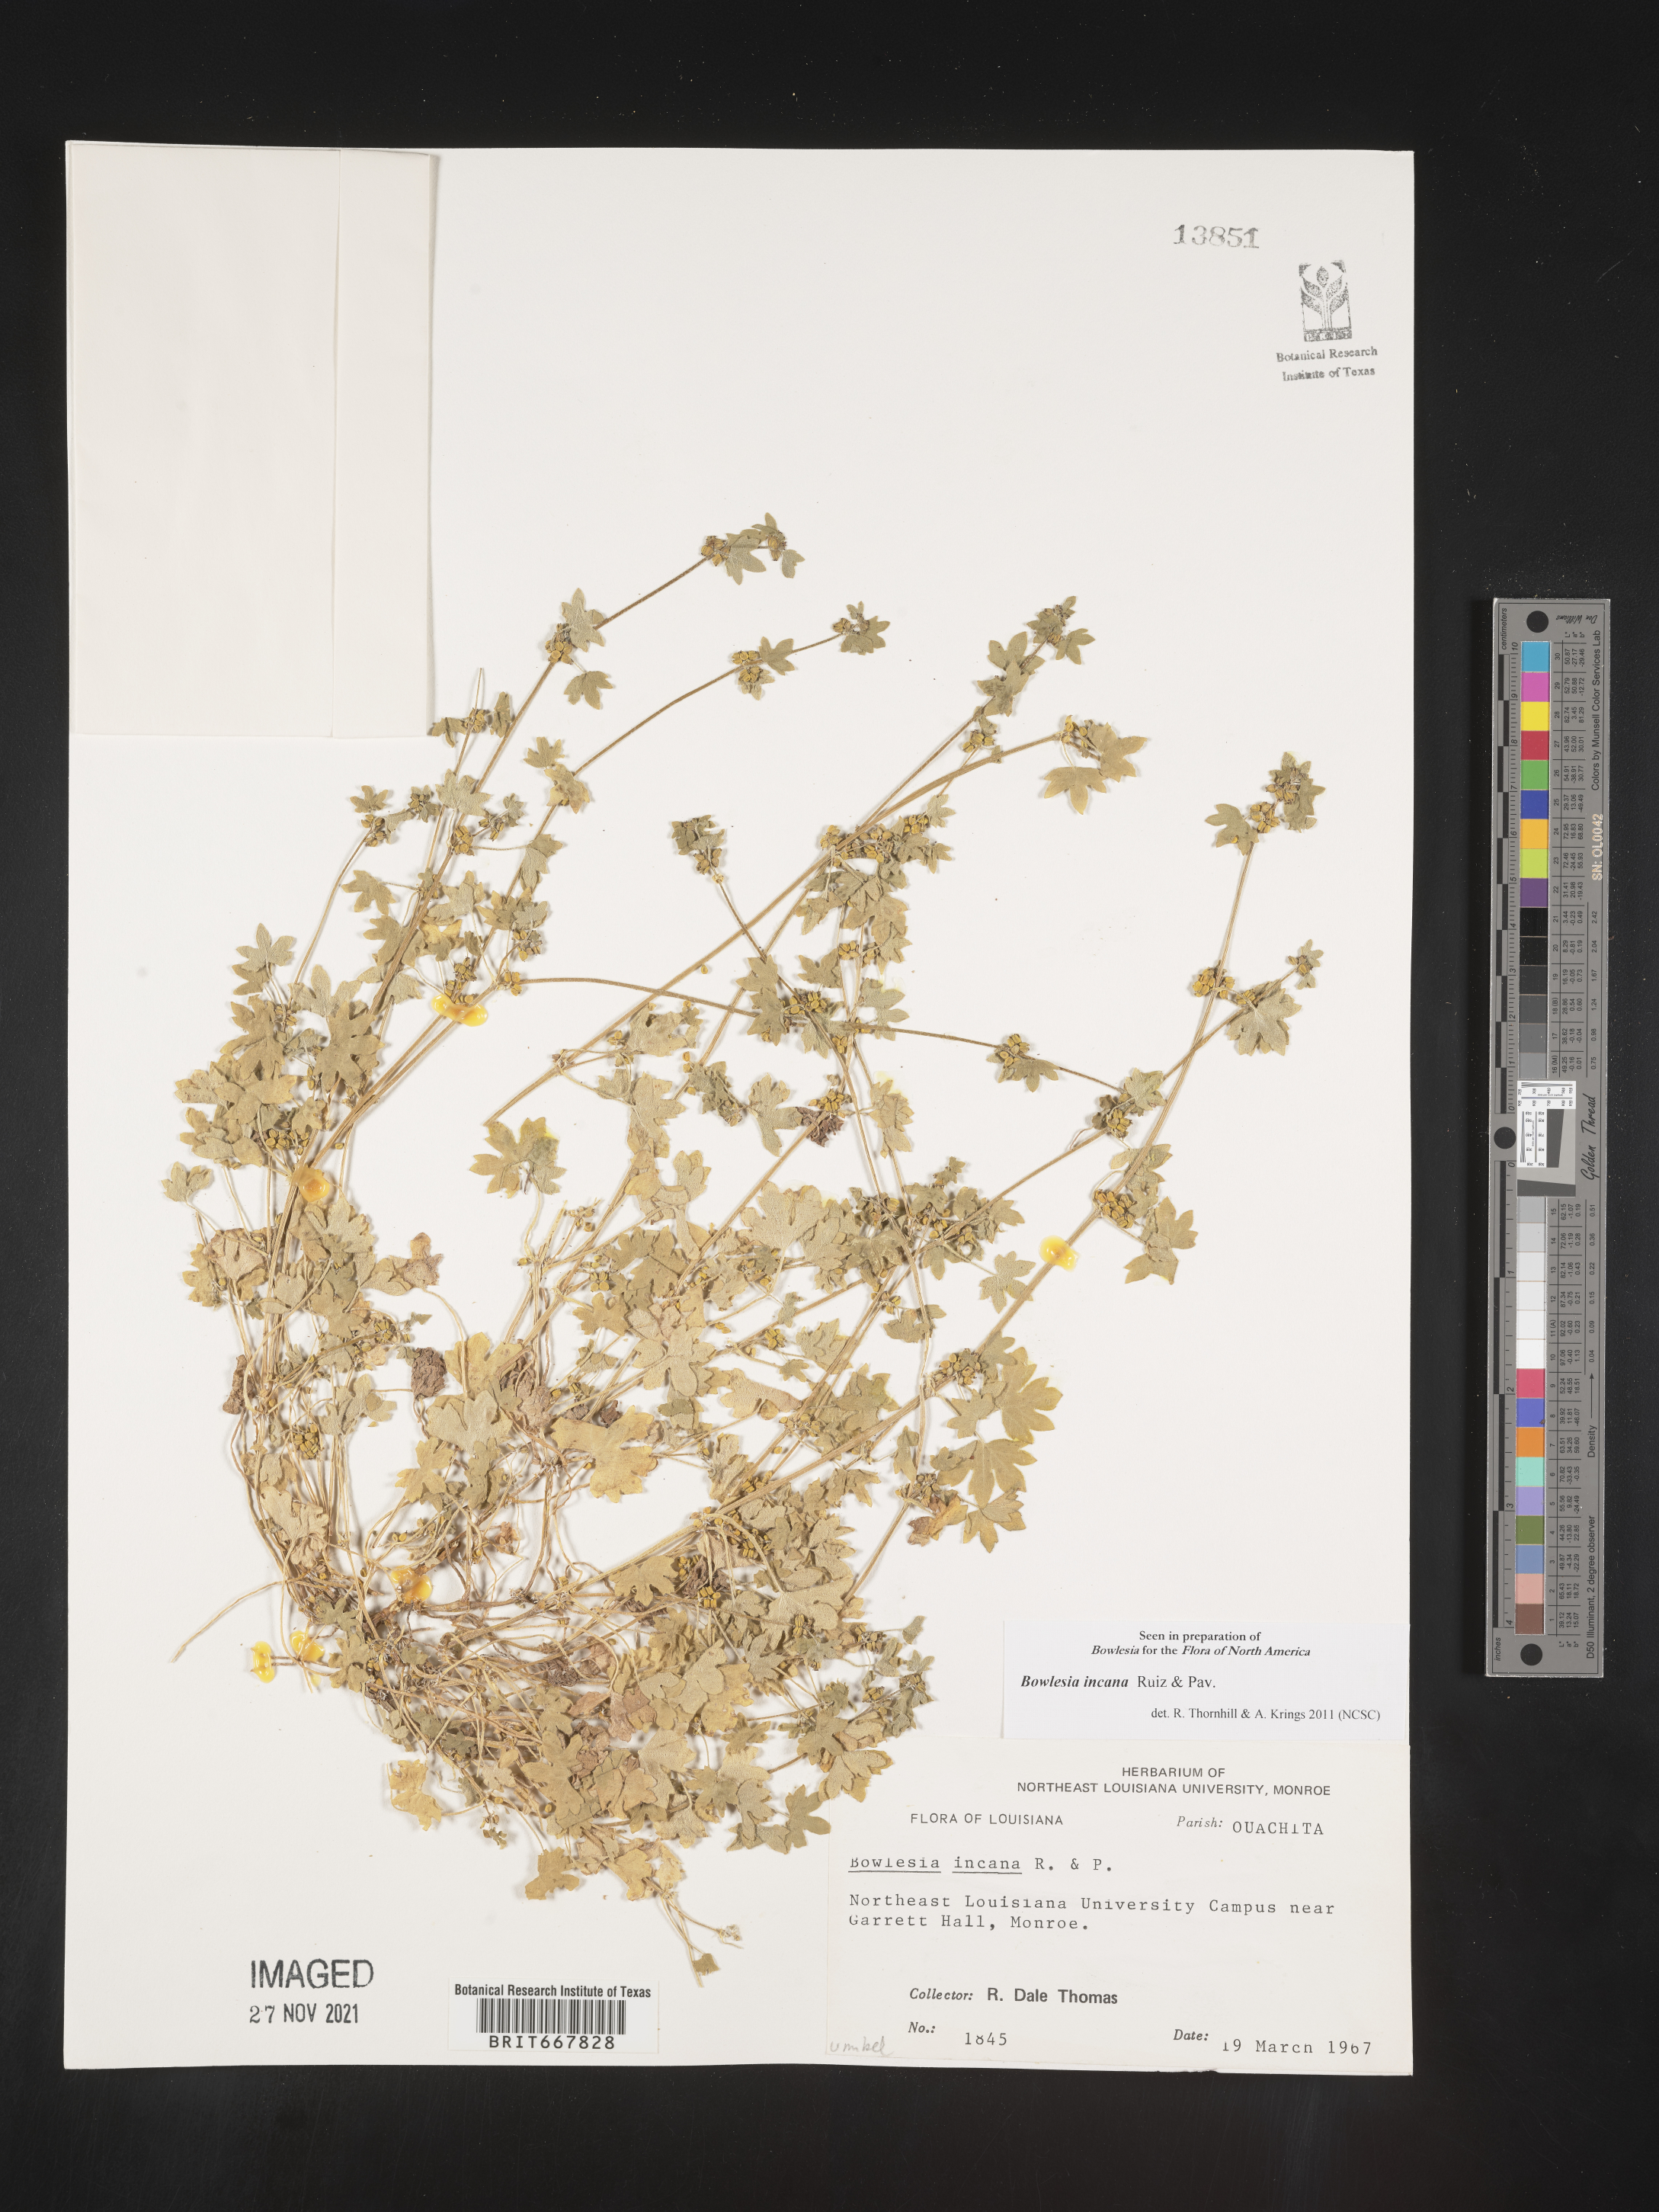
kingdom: Plantae
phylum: Tracheophyta
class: Magnoliopsida
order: Apiales
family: Apiaceae
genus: Bowlesia
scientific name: Bowlesia
